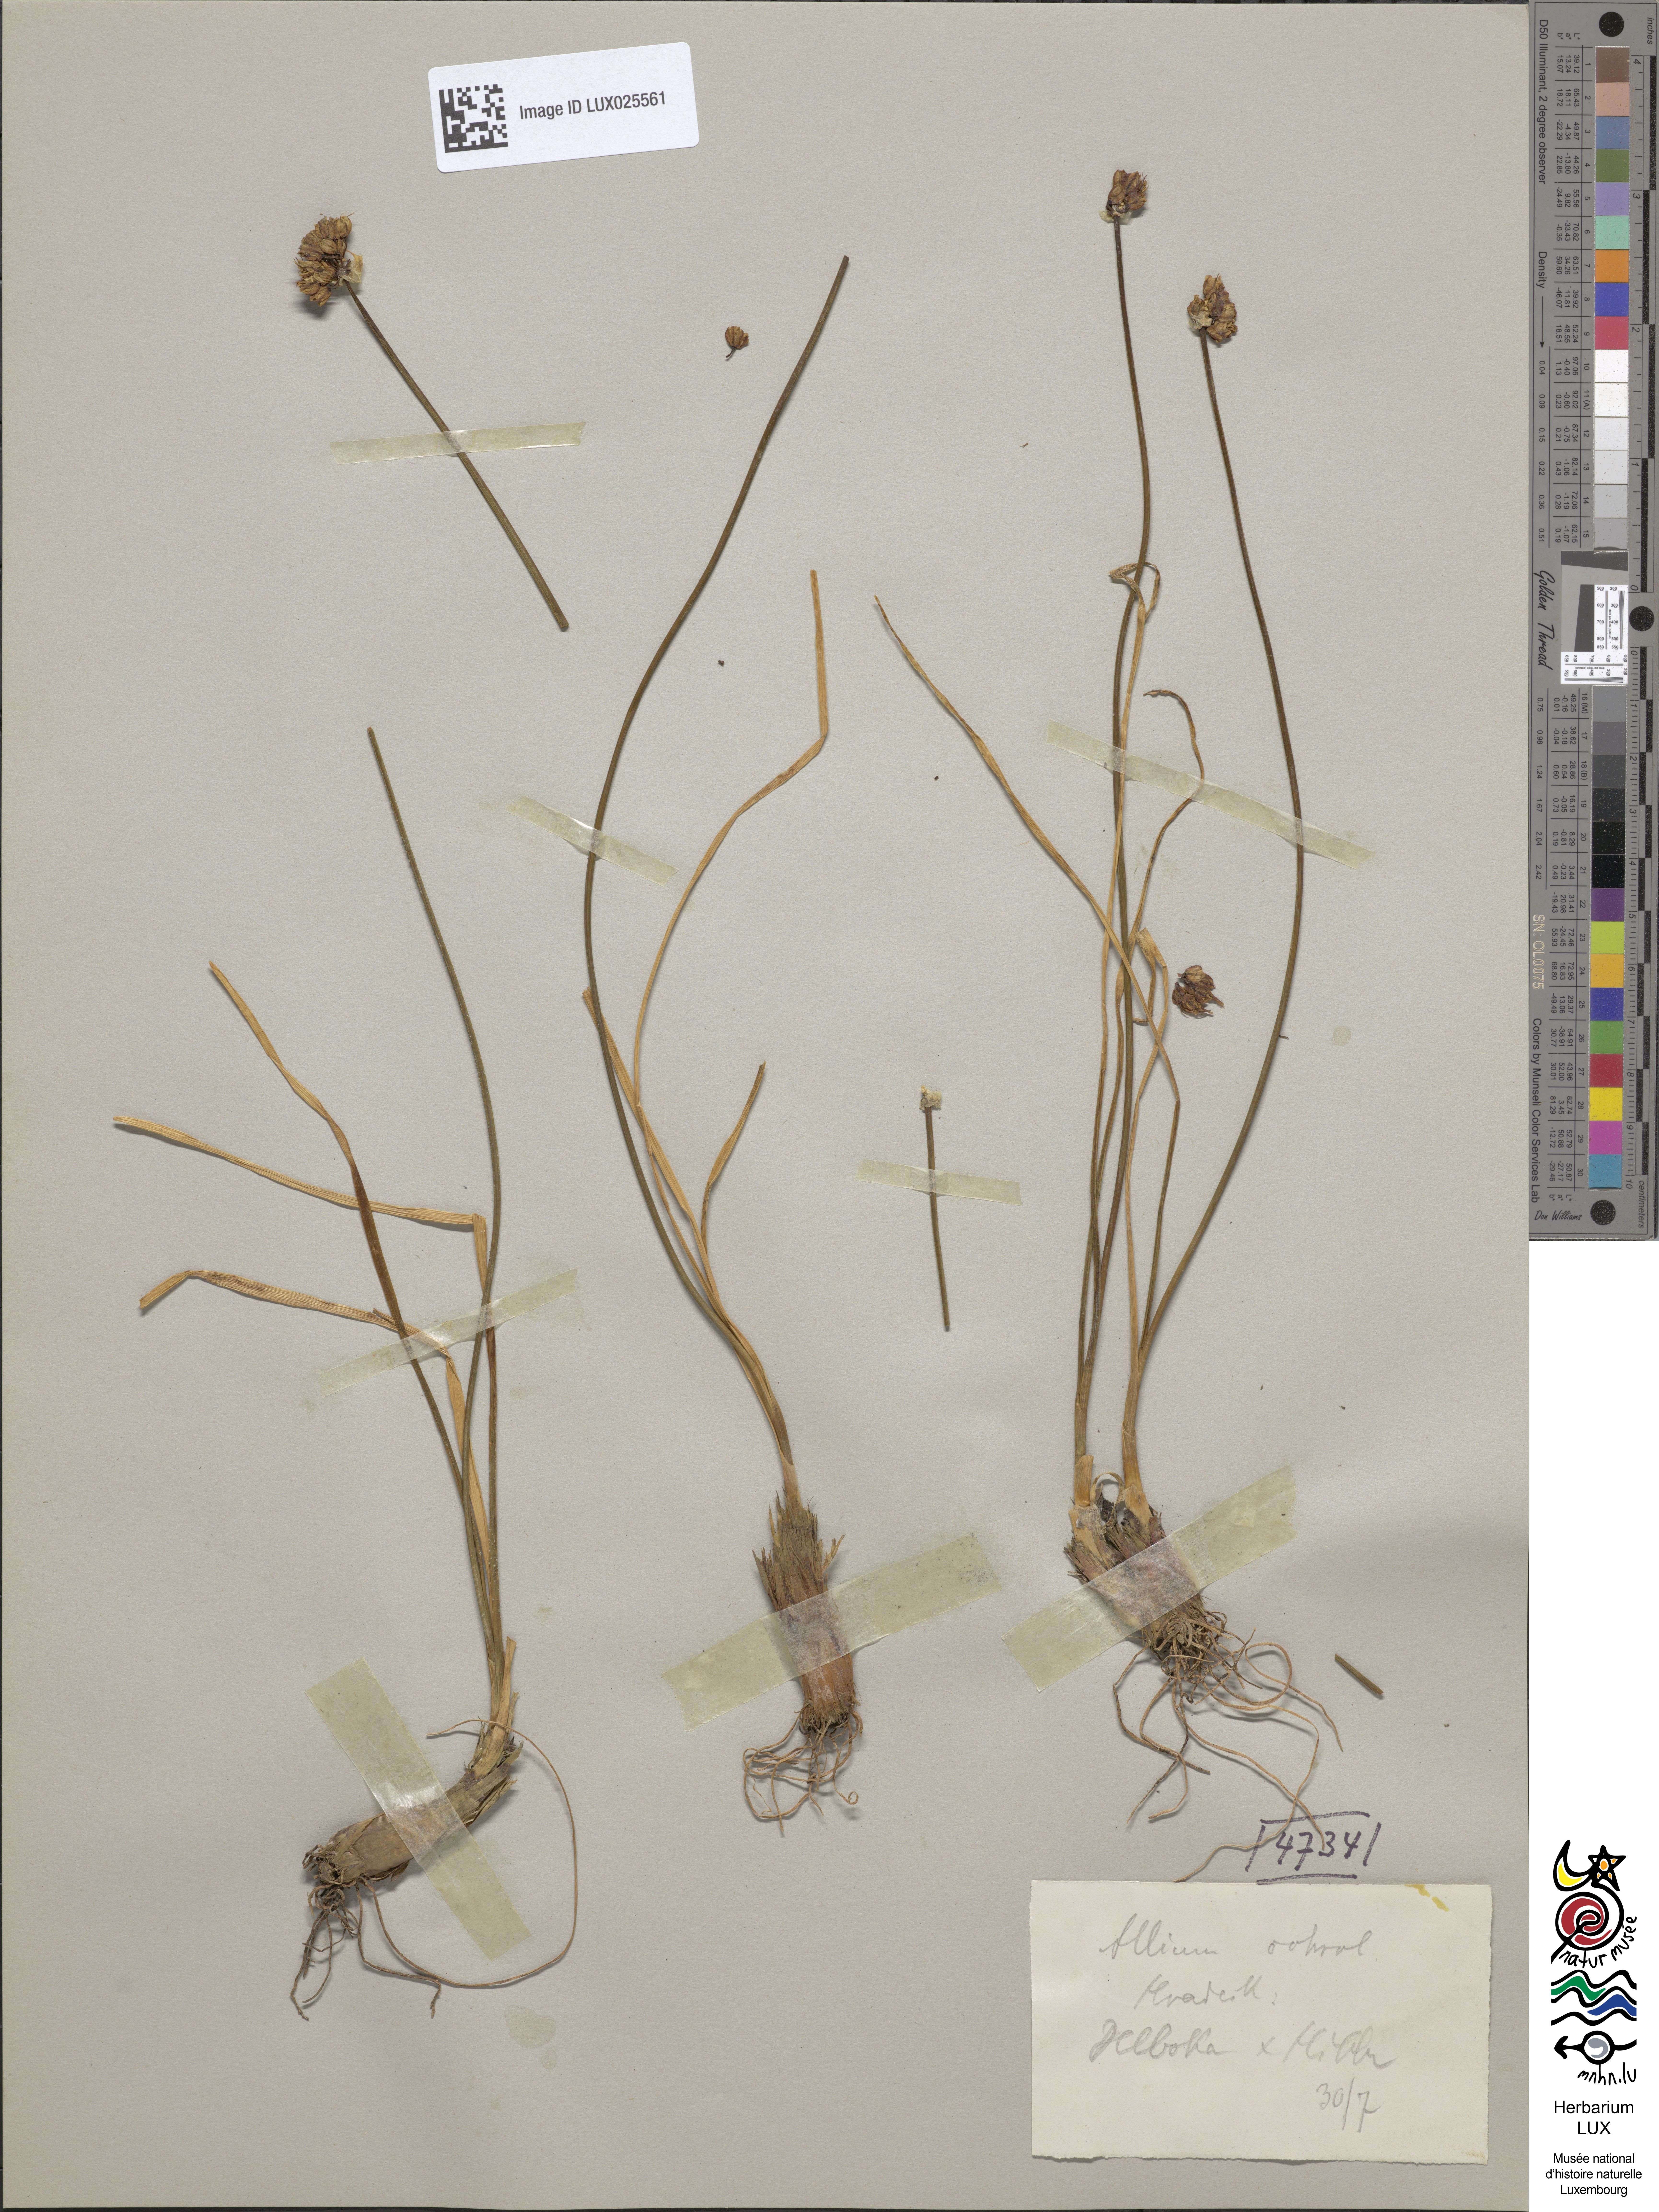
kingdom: Plantae
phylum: Tracheophyta
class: Liliopsida
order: Asparagales
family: Amaryllidaceae
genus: Allium
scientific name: Allium ericetorum
